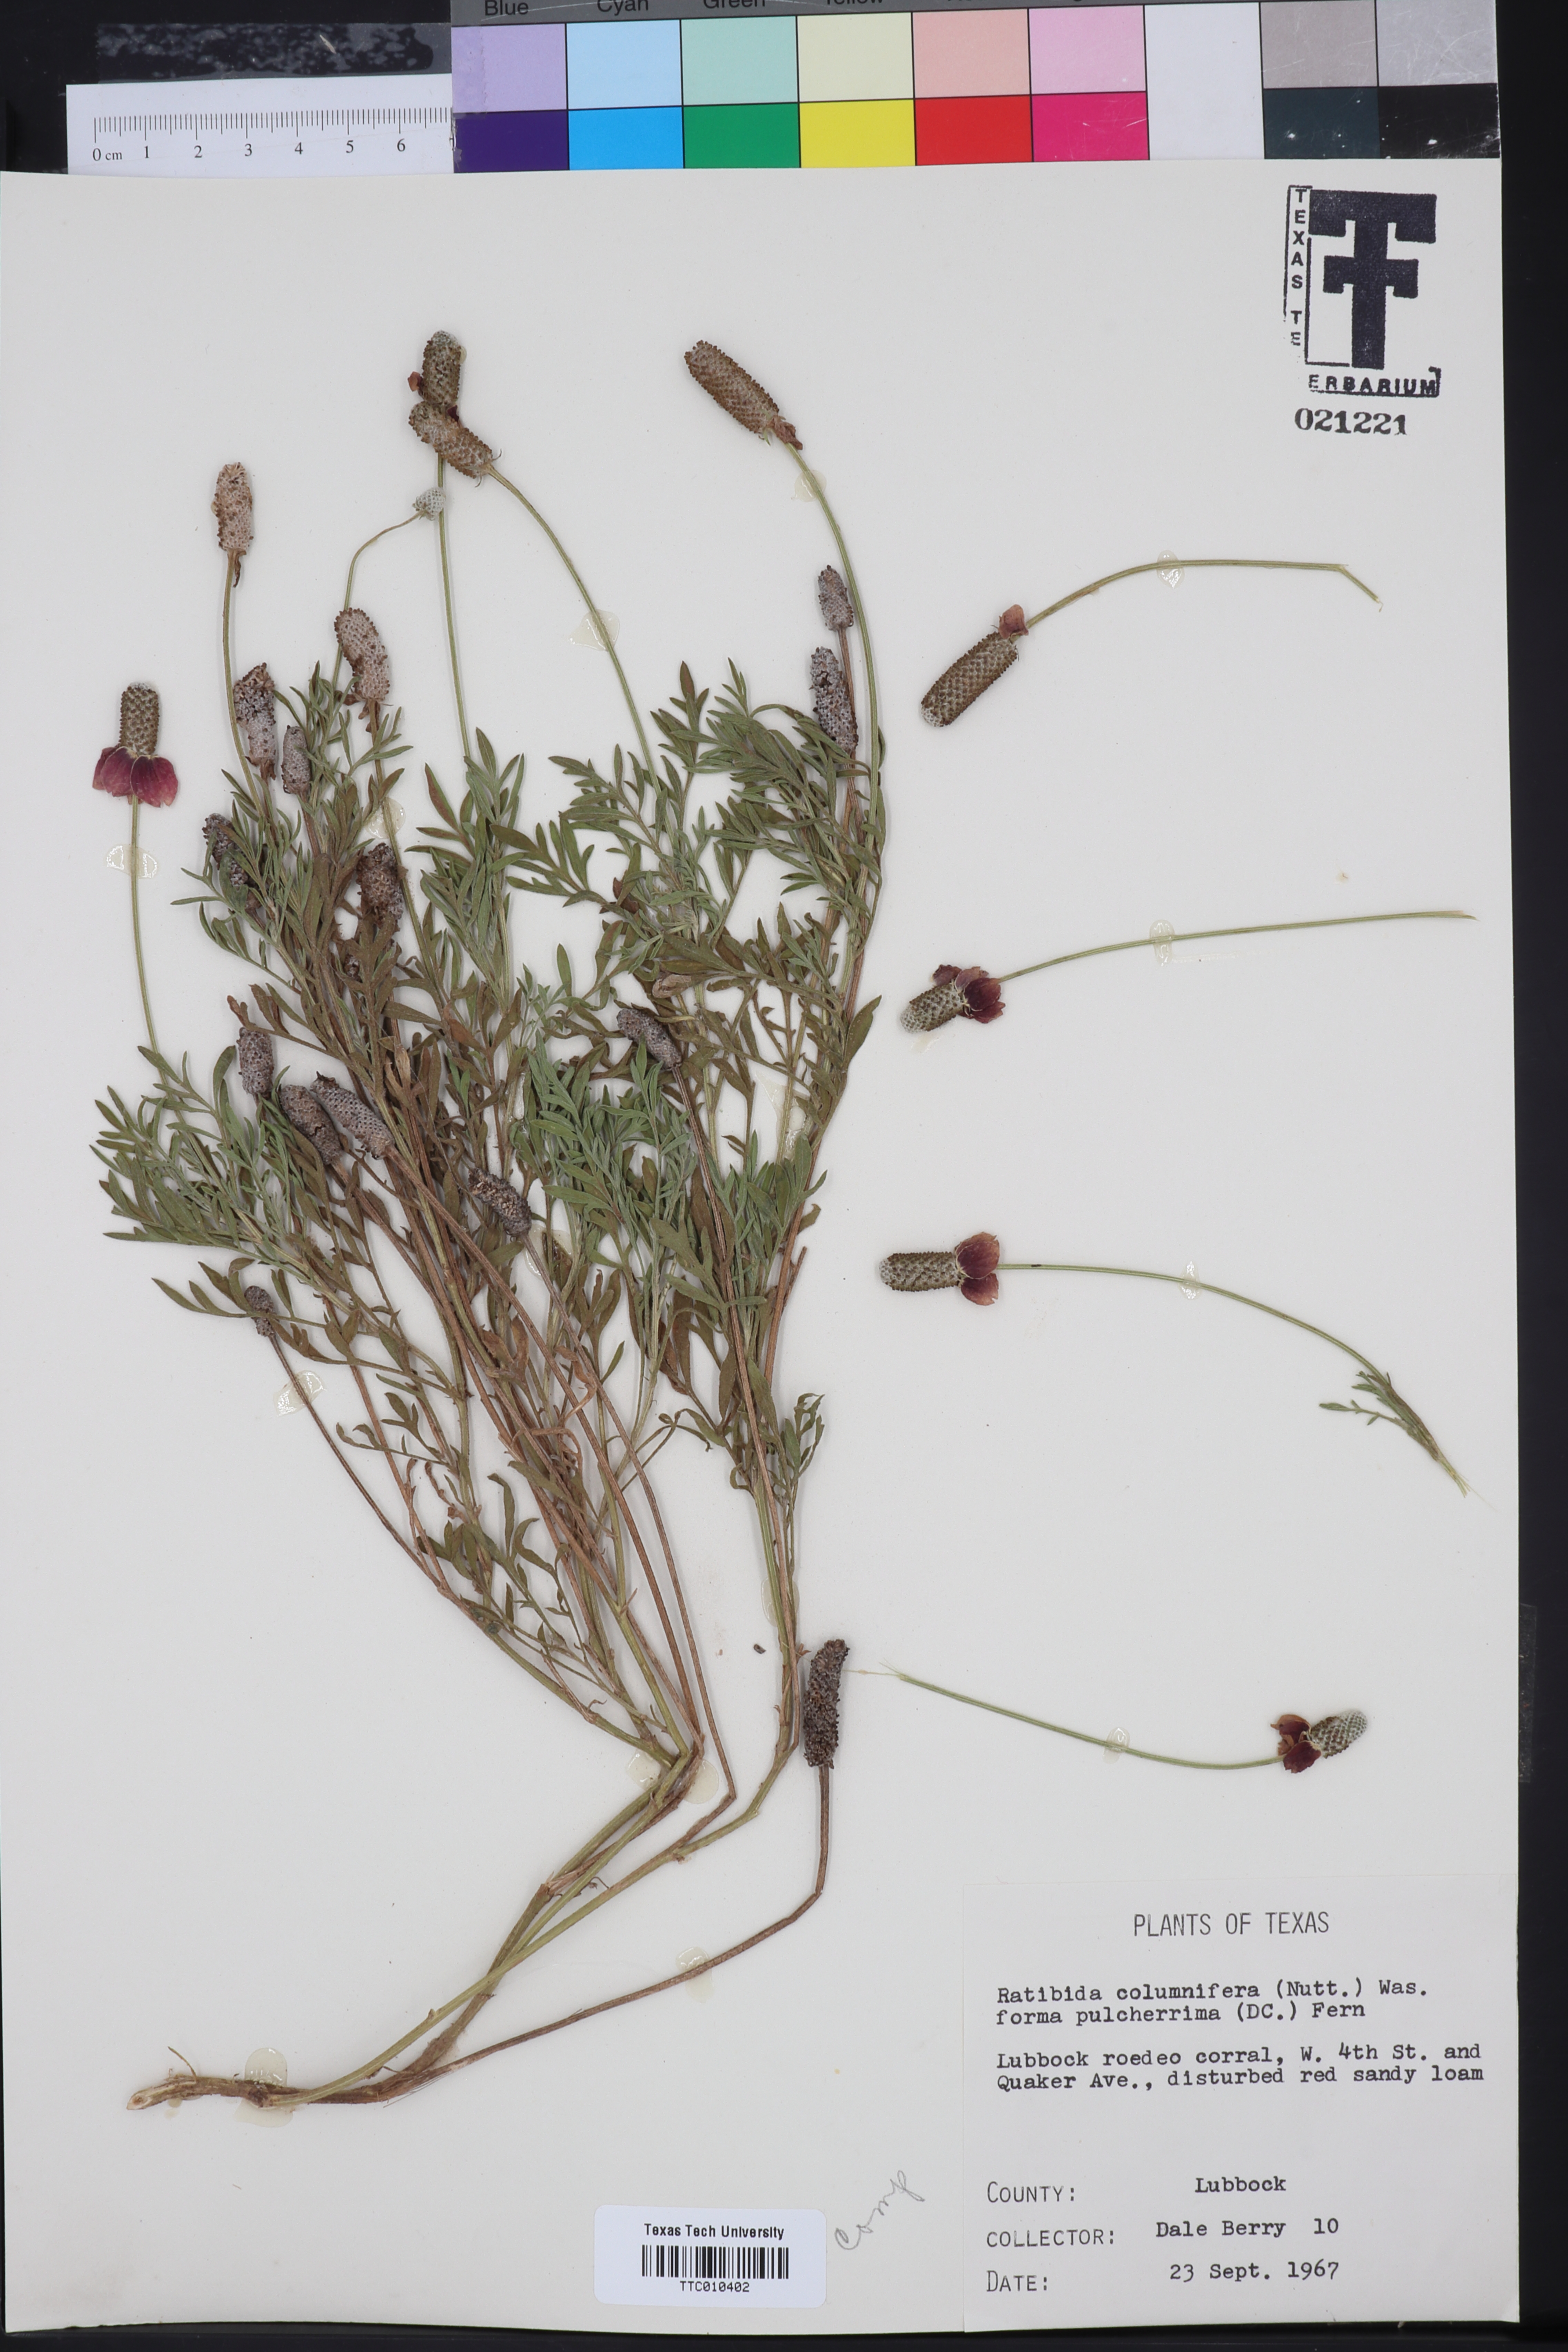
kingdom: Plantae
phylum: Tracheophyta
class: Magnoliopsida
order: Asterales
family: Asteraceae
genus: Ratibida
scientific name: Ratibida columnifera
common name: Prairie coneflower
